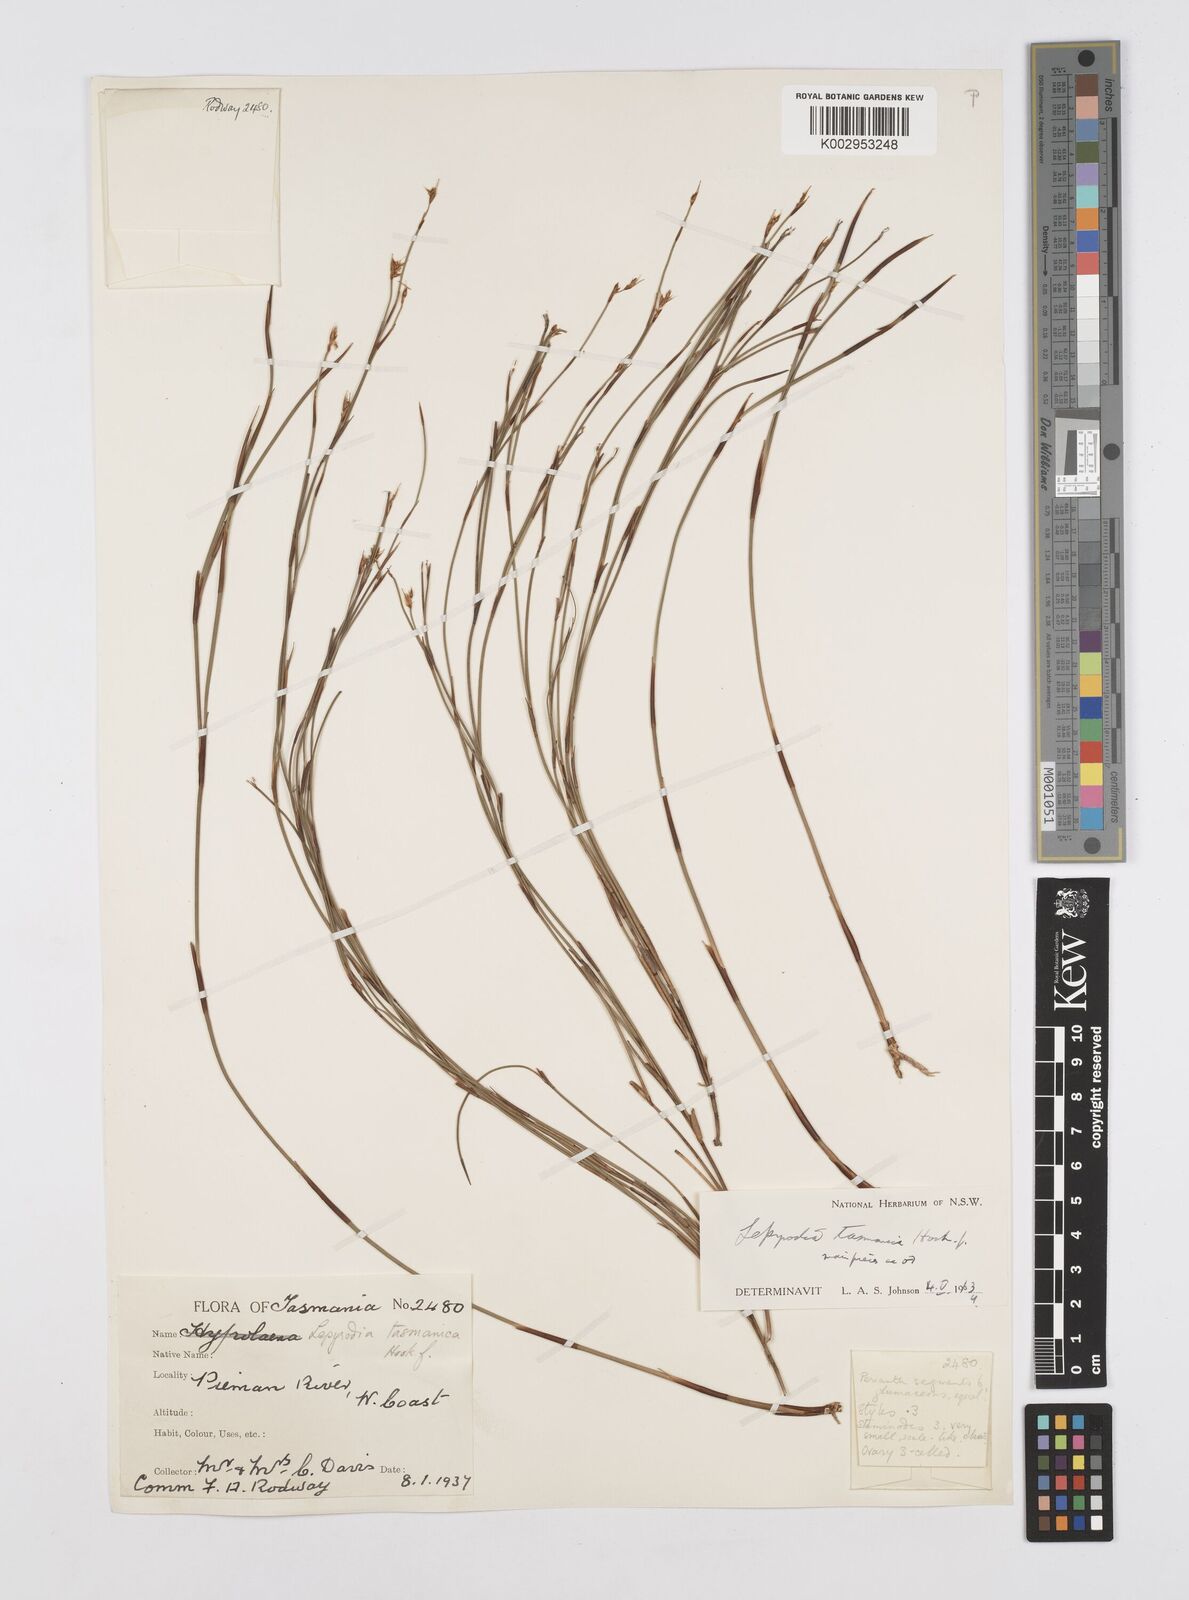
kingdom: Plantae
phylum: Tracheophyta
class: Liliopsida
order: Poales
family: Restionaceae
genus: Sporadanthus
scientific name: Sporadanthus tasmanicus
